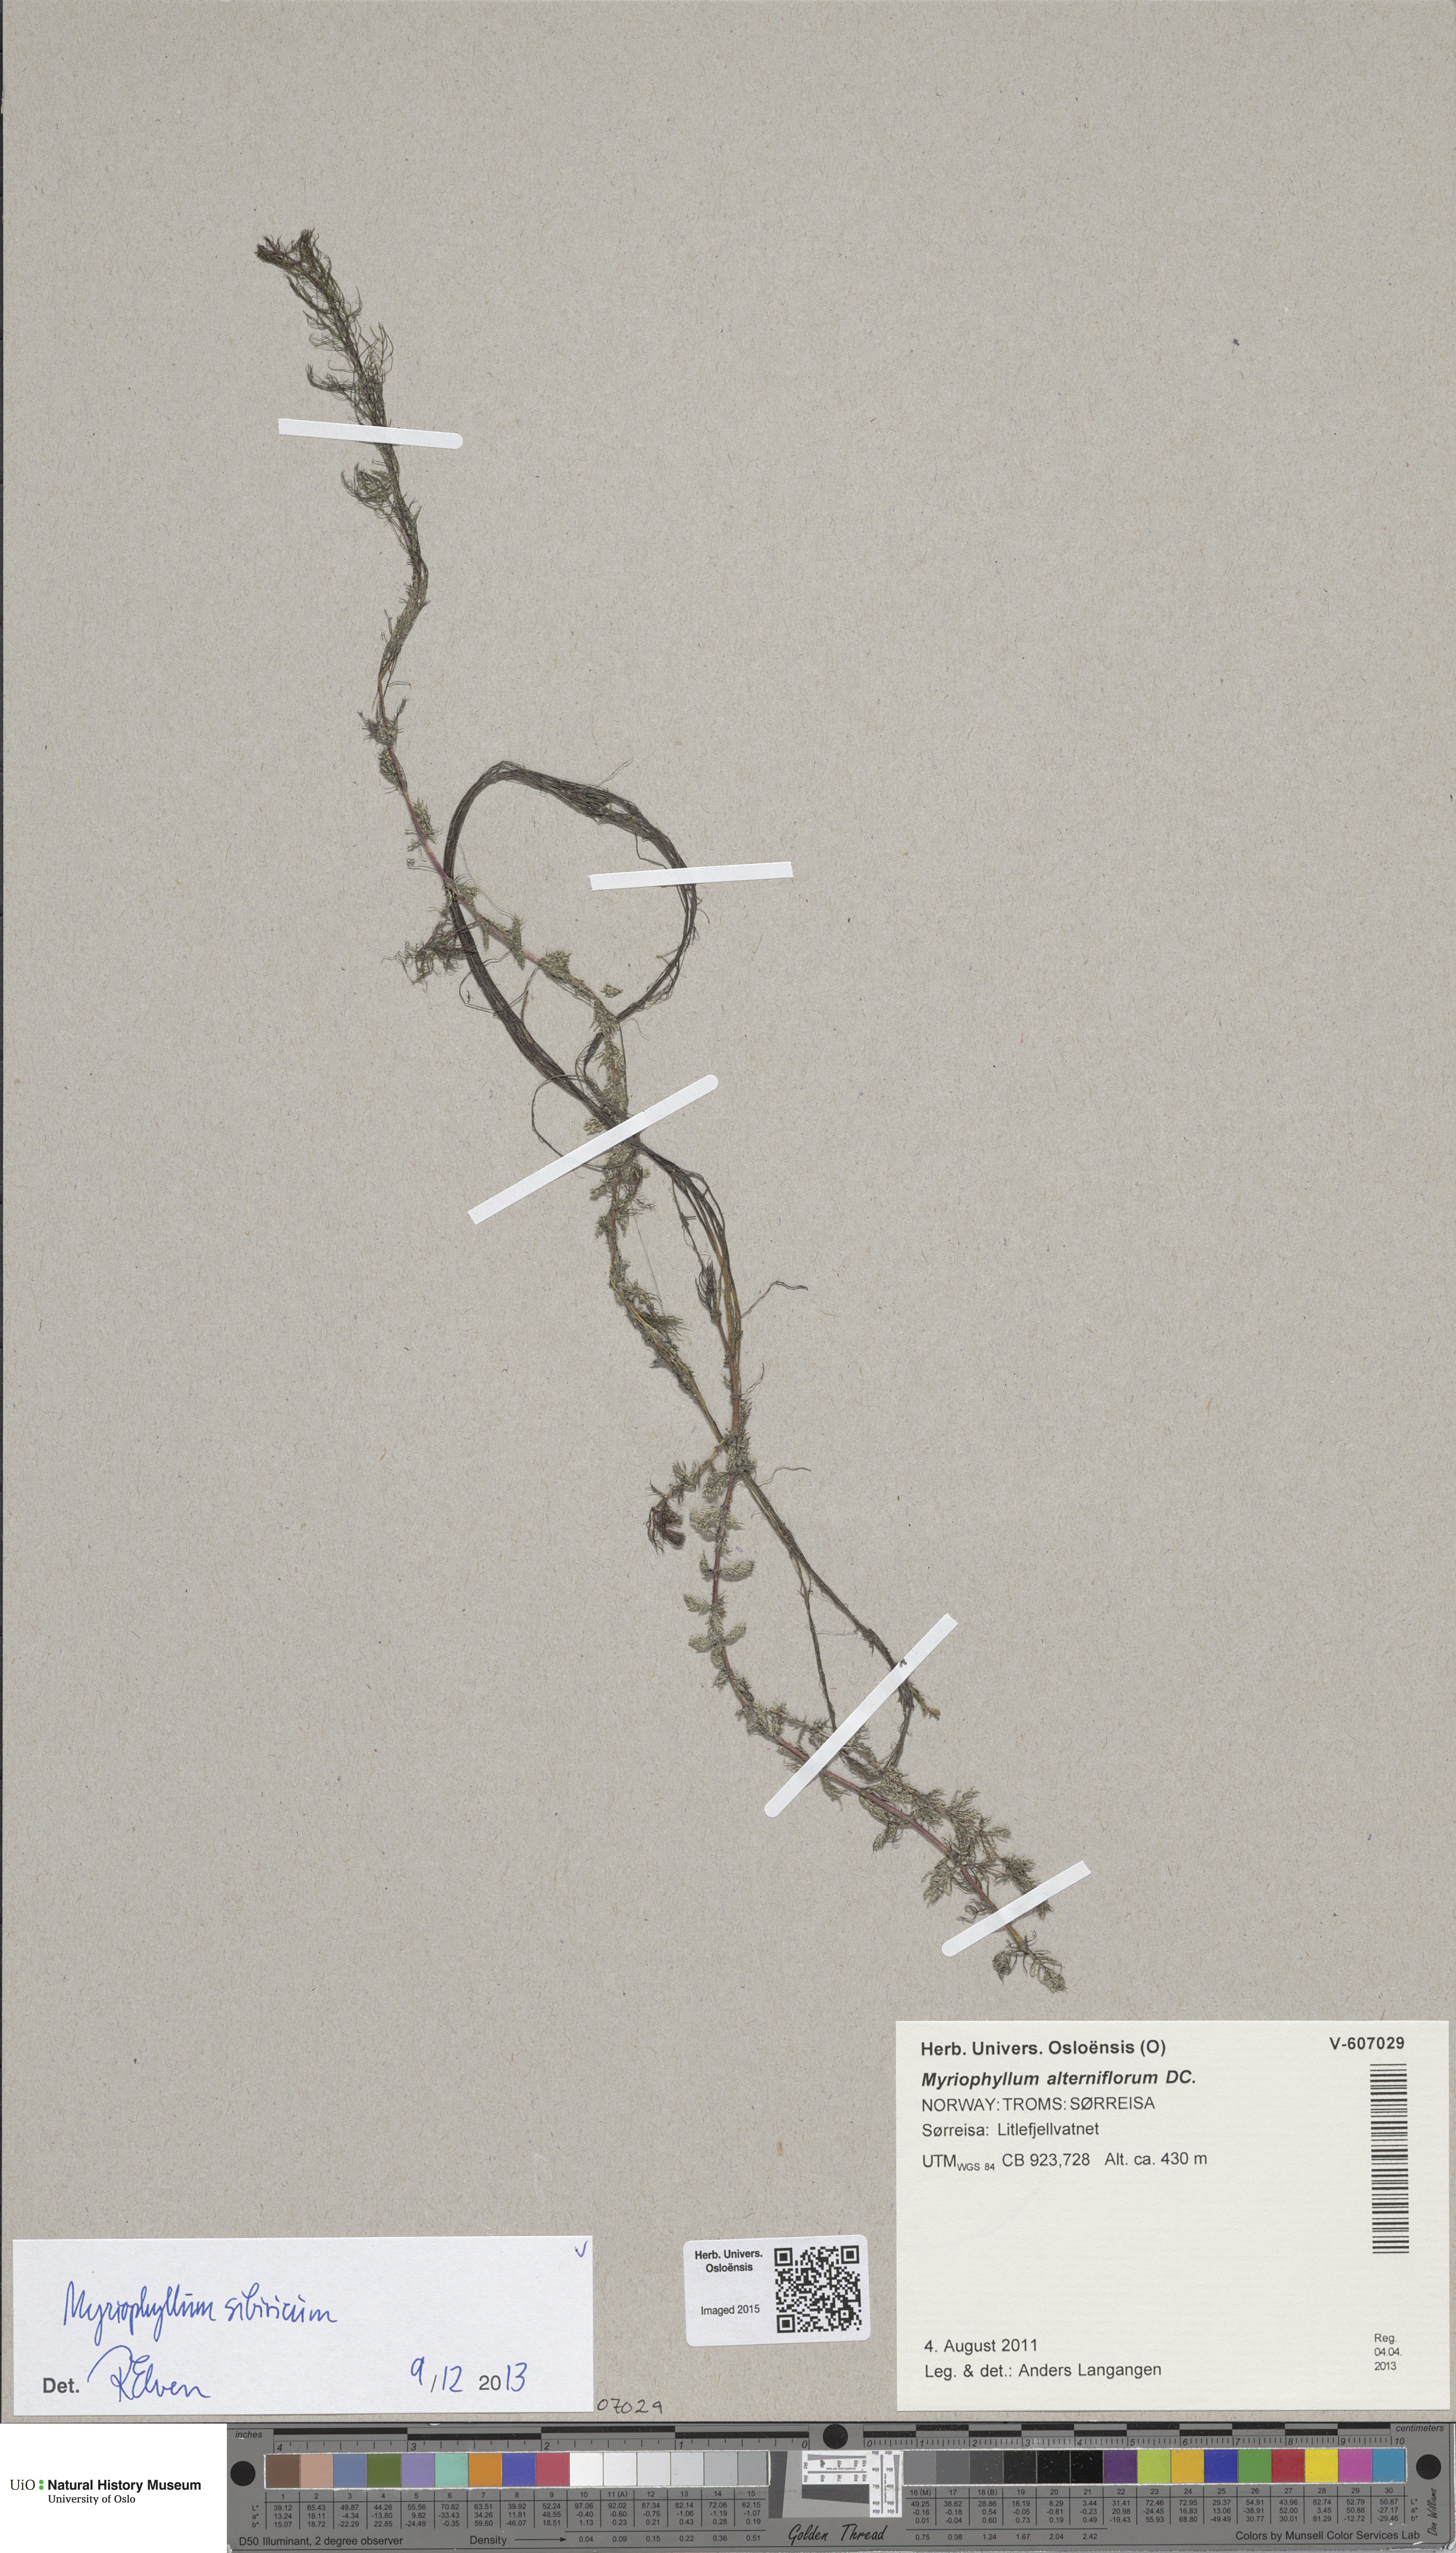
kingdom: Plantae
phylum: Tracheophyta
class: Magnoliopsida
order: Saxifragales
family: Haloragaceae
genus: Myriophyllum
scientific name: Myriophyllum sibiricum
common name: Siberian water-milfoil
